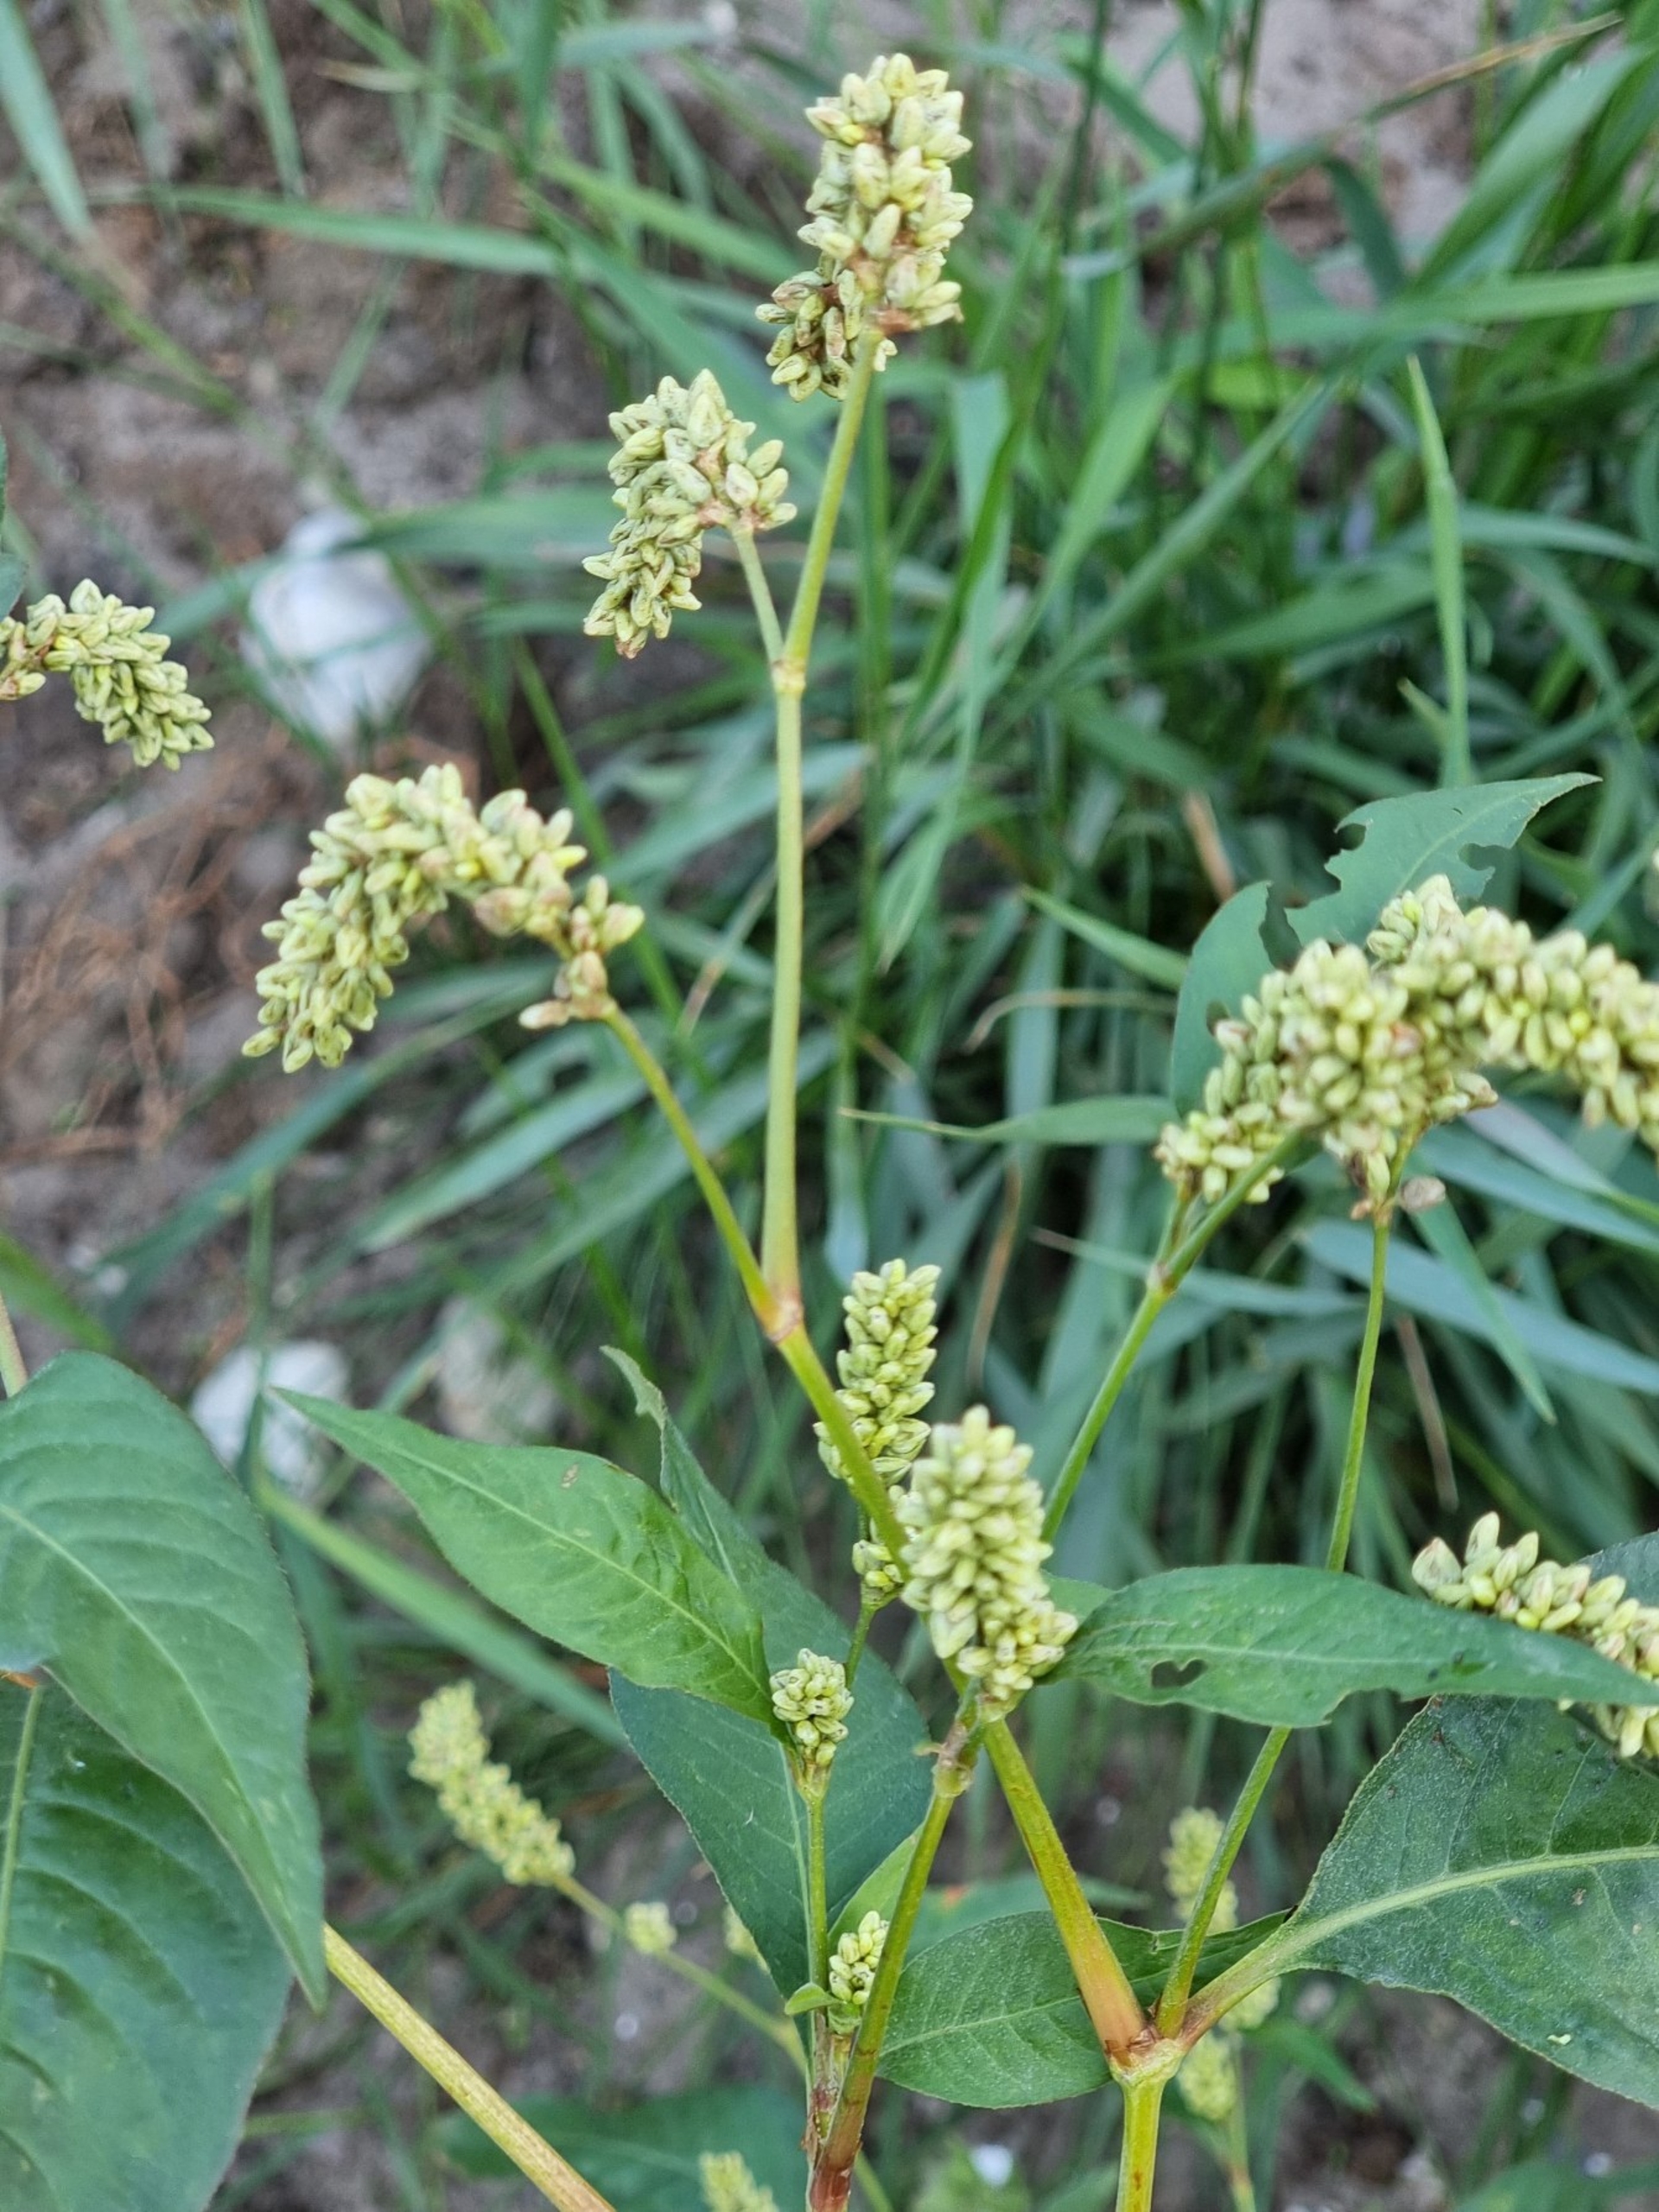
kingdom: Plantae
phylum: Tracheophyta
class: Magnoliopsida
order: Caryophyllales
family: Polygonaceae
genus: Persicaria
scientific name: Persicaria lapathifolia
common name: Bleg pileurt
